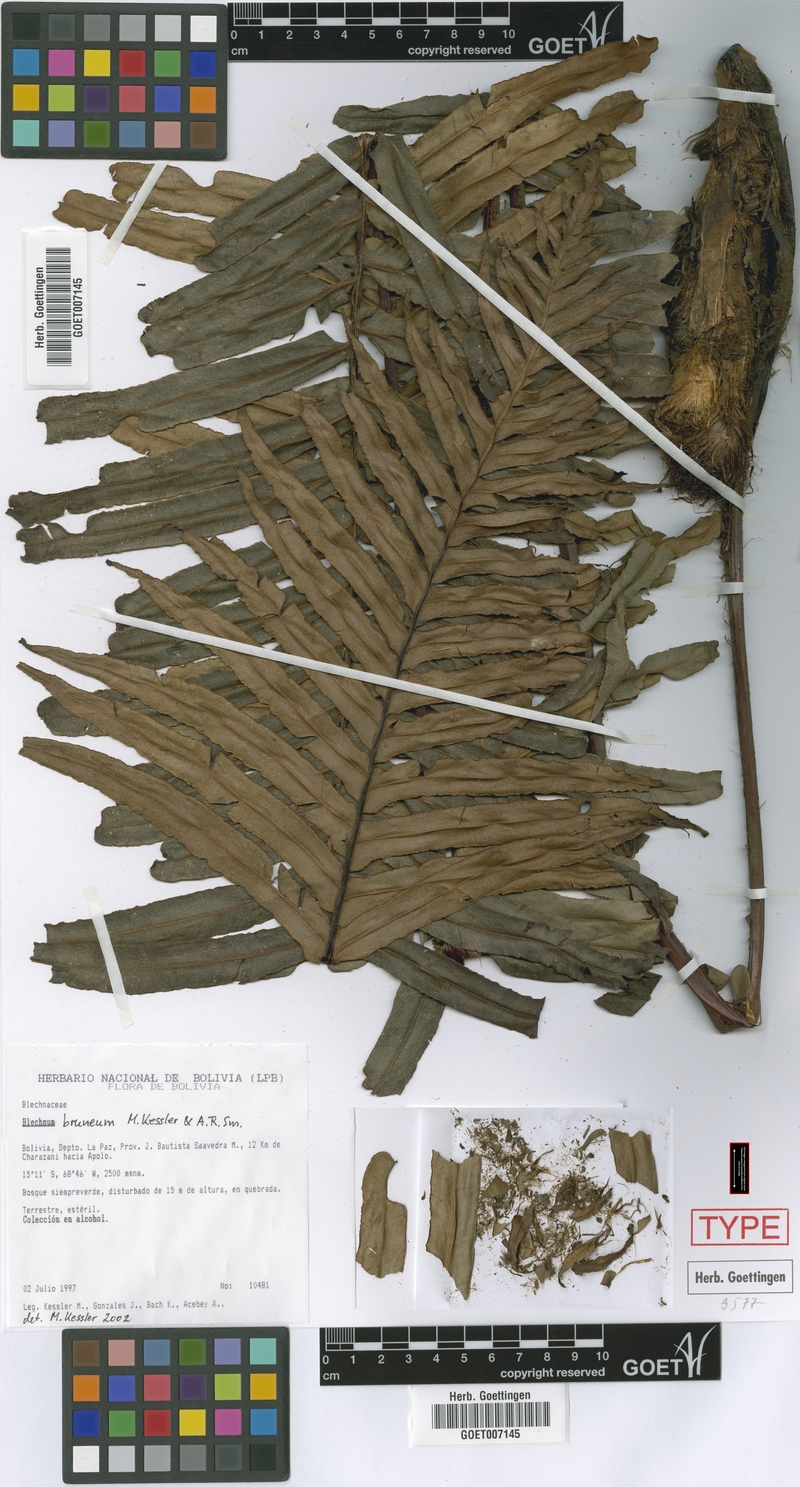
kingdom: Plantae
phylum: Tracheophyta
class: Polypodiopsida
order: Polypodiales
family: Blechnaceae
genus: Lomaria
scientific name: Lomaria brunea
